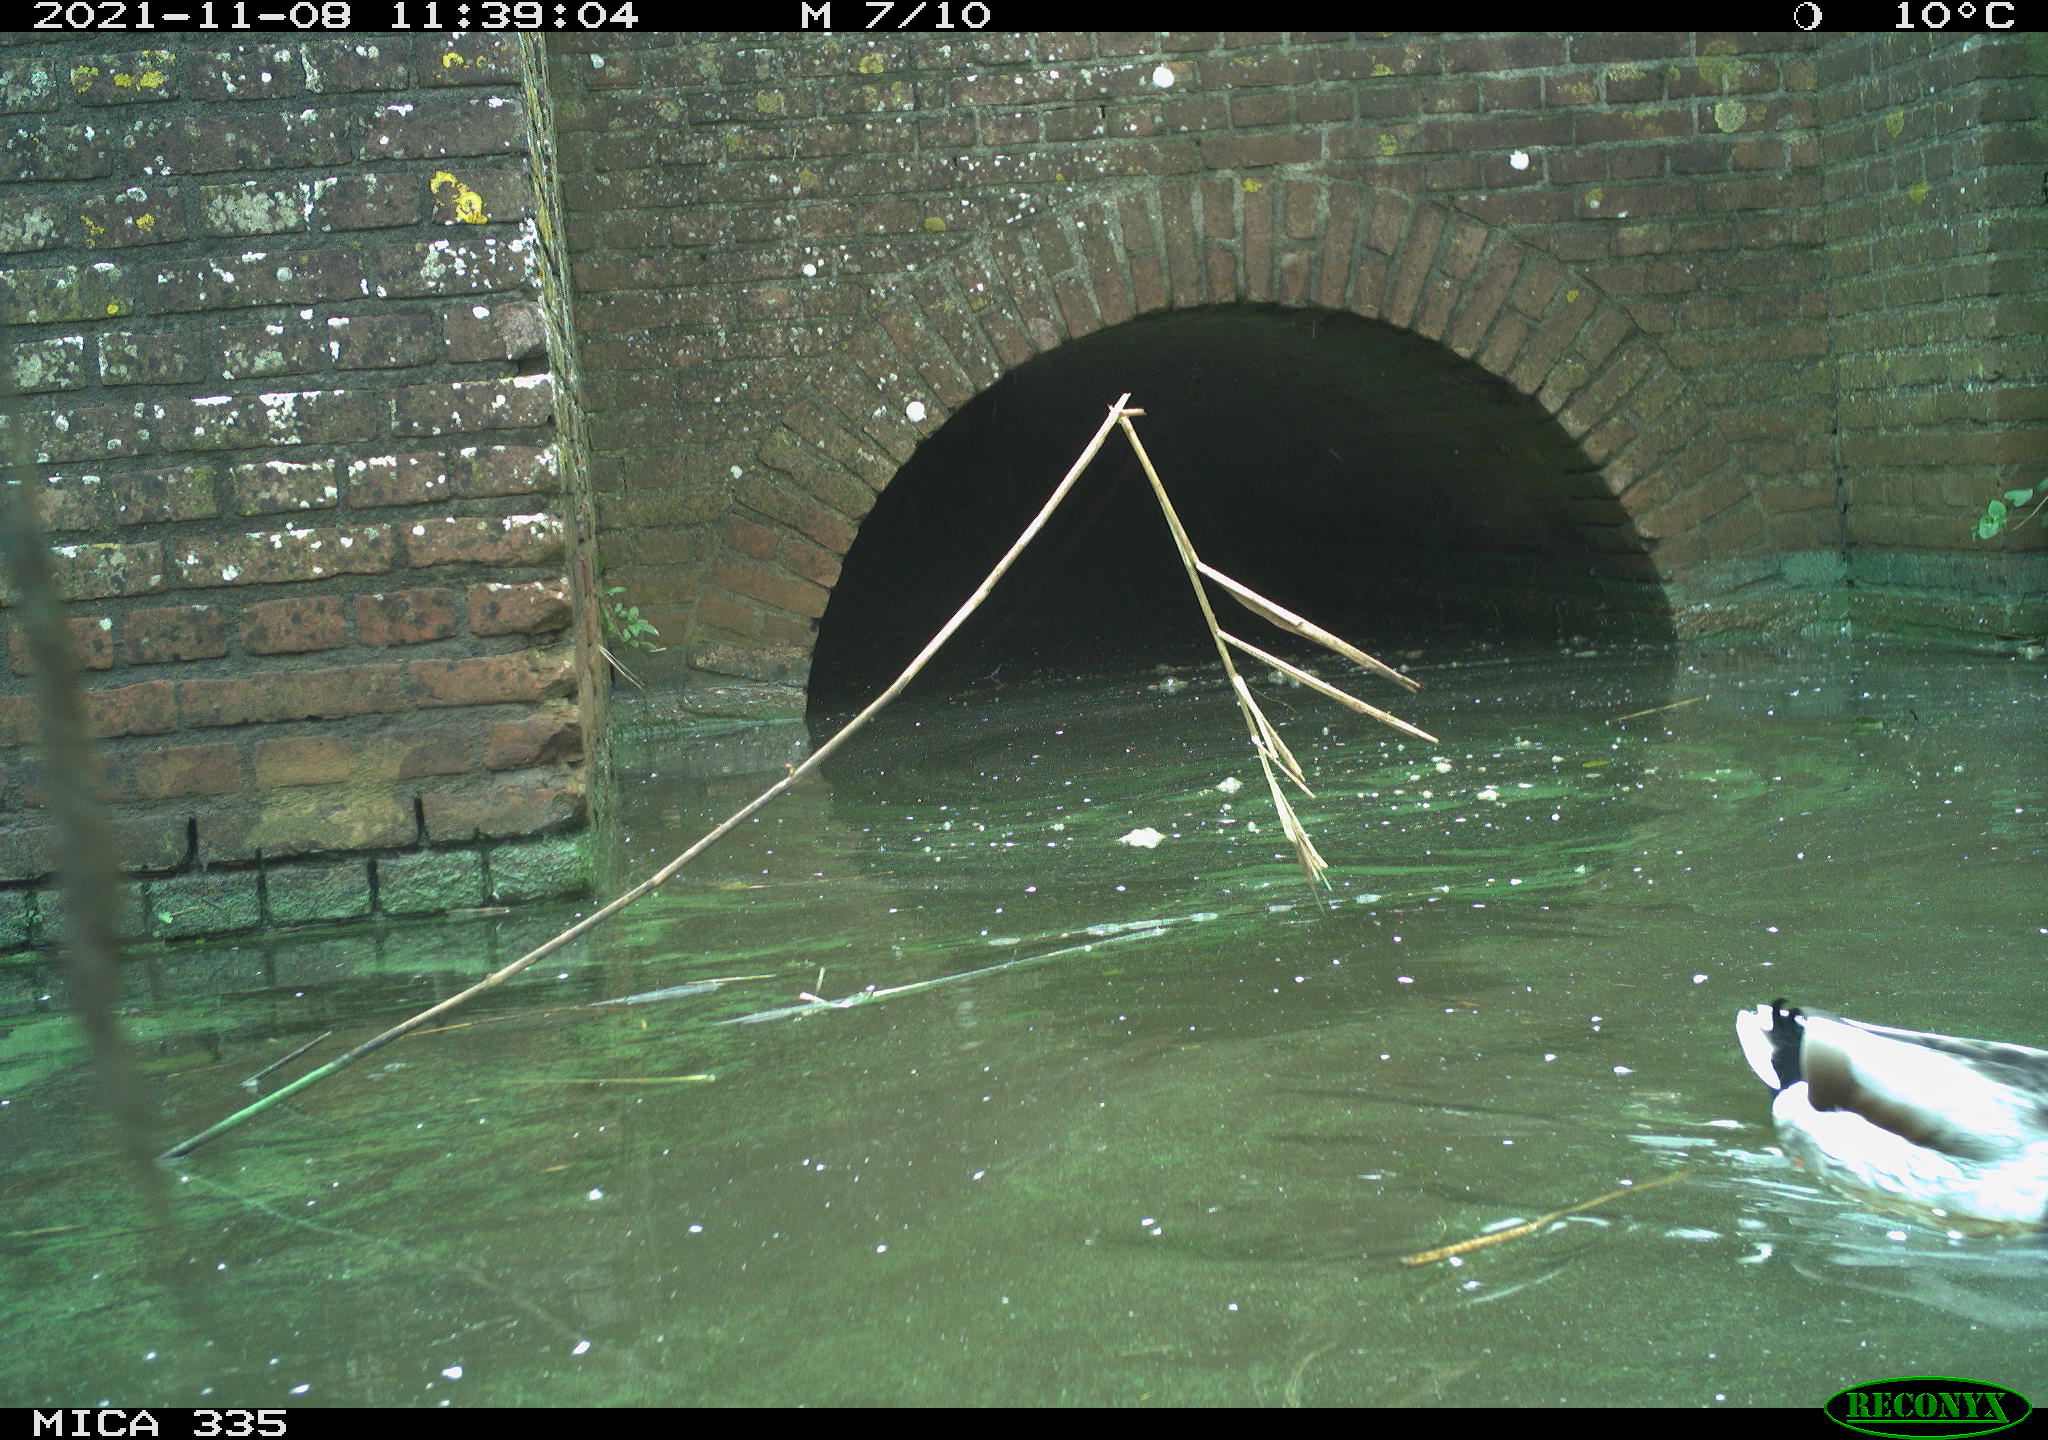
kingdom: Animalia
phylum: Chordata
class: Aves
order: Anseriformes
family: Anatidae
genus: Anas
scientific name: Anas platyrhynchos
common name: Mallard
